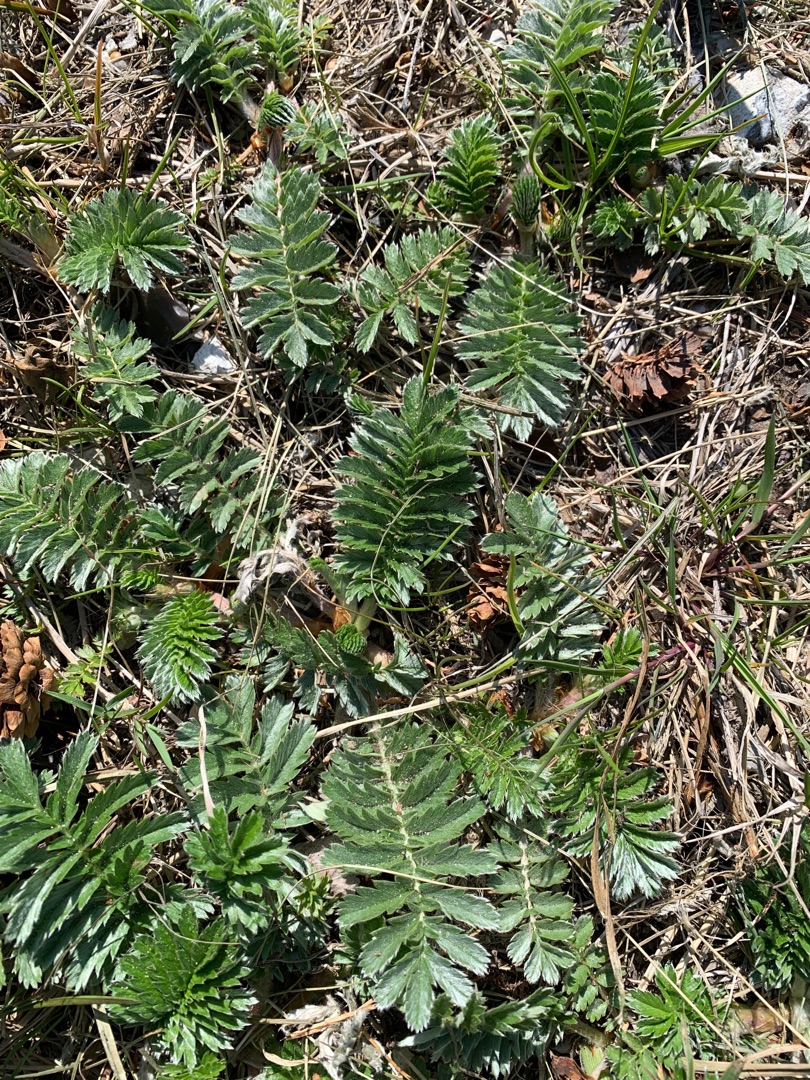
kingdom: Plantae
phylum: Tracheophyta
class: Magnoliopsida
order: Rosales
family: Rosaceae
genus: Argentina
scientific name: Argentina anserina
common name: Gåsepotentil
